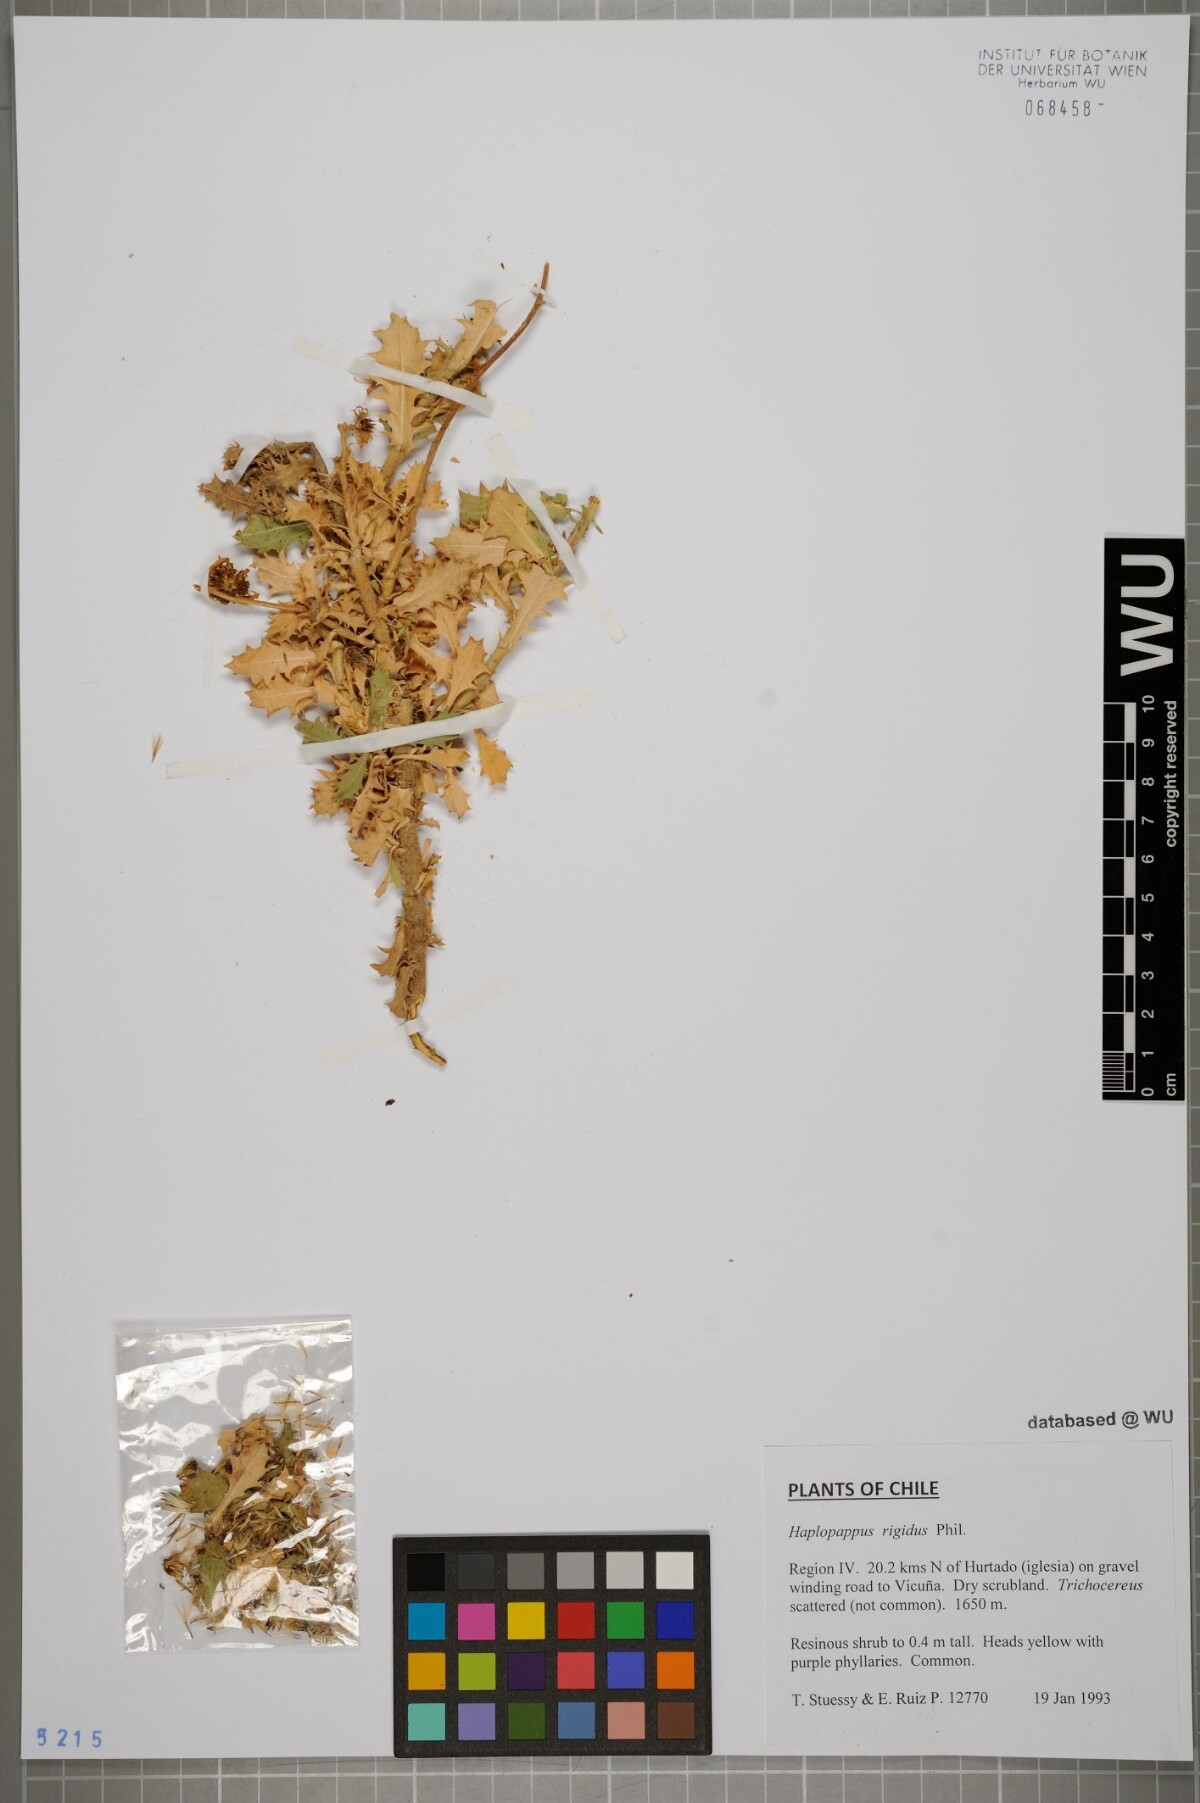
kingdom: Plantae
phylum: Tracheophyta
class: Magnoliopsida
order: Asterales
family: Asteraceae
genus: Haplopappus
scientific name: Haplopappus rigidus
